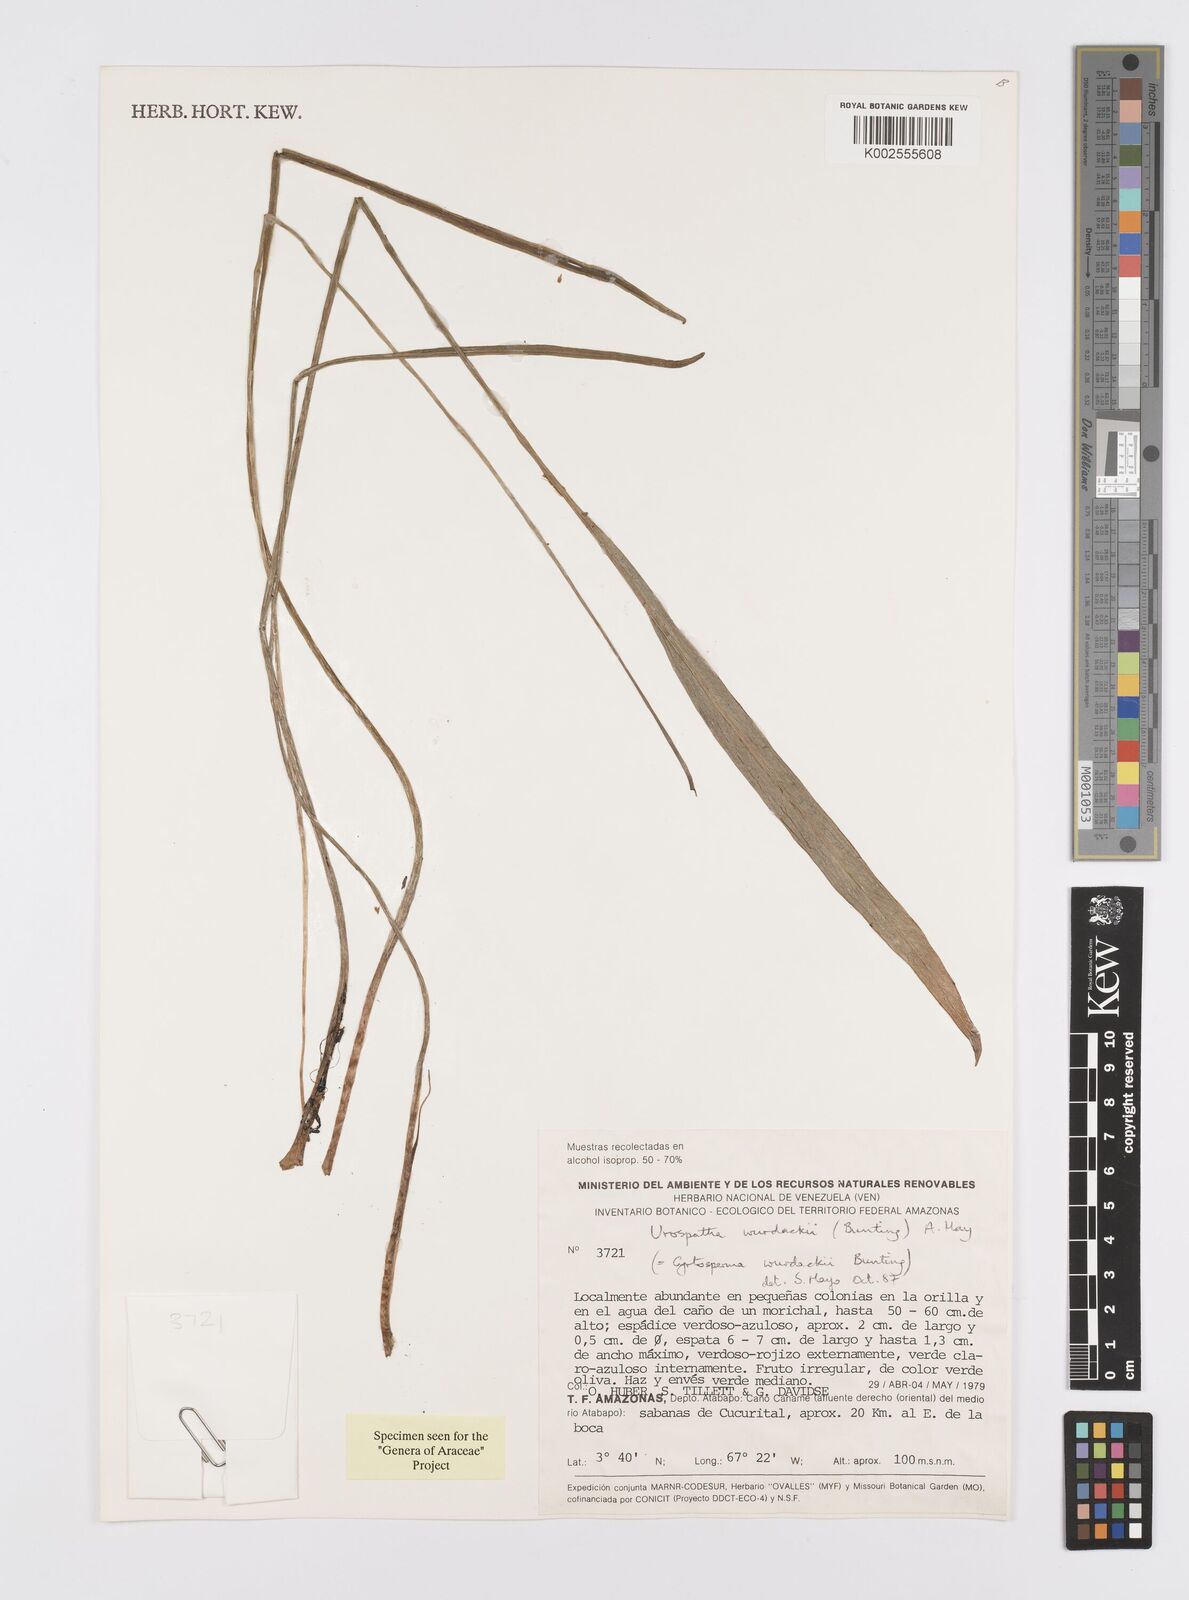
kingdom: Plantae
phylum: Tracheophyta
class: Liliopsida
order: Alismatales
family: Araceae
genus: Urospatha
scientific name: Urospatha wurdackii
